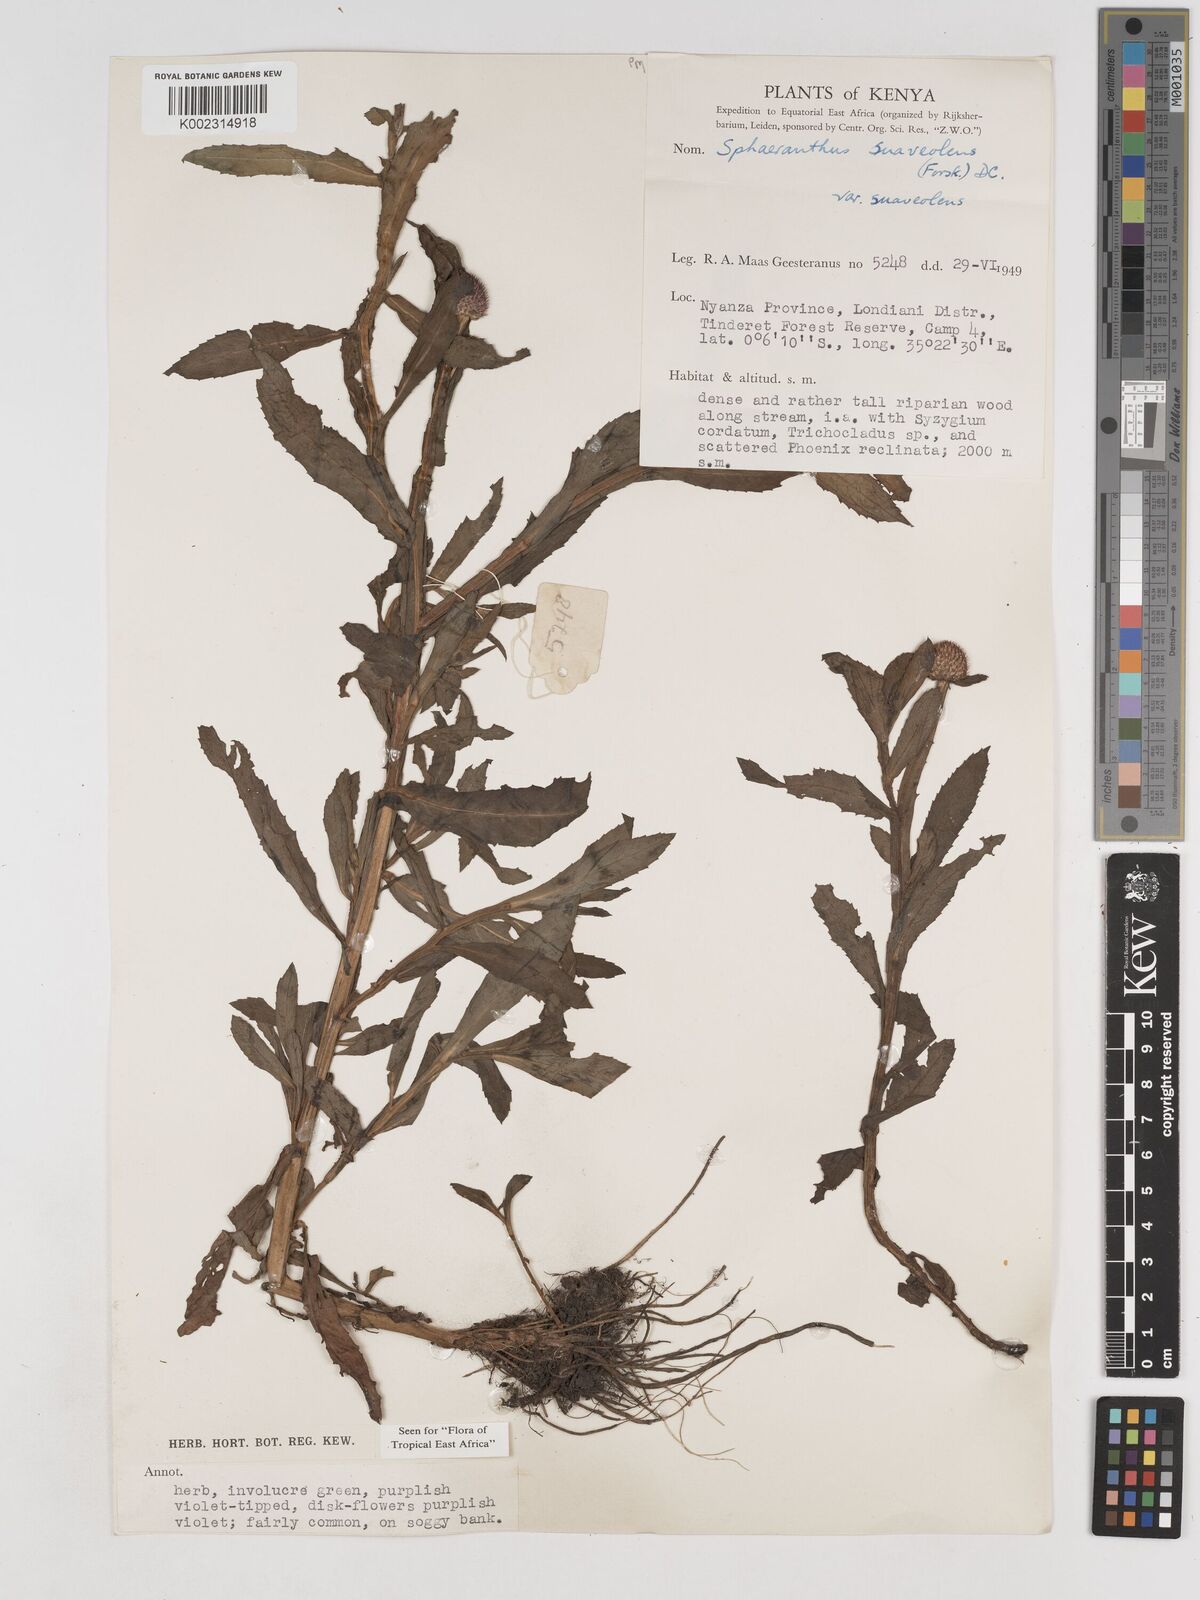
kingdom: Plantae
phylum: Tracheophyta
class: Magnoliopsida
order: Asterales
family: Asteraceae
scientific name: Asteraceae
